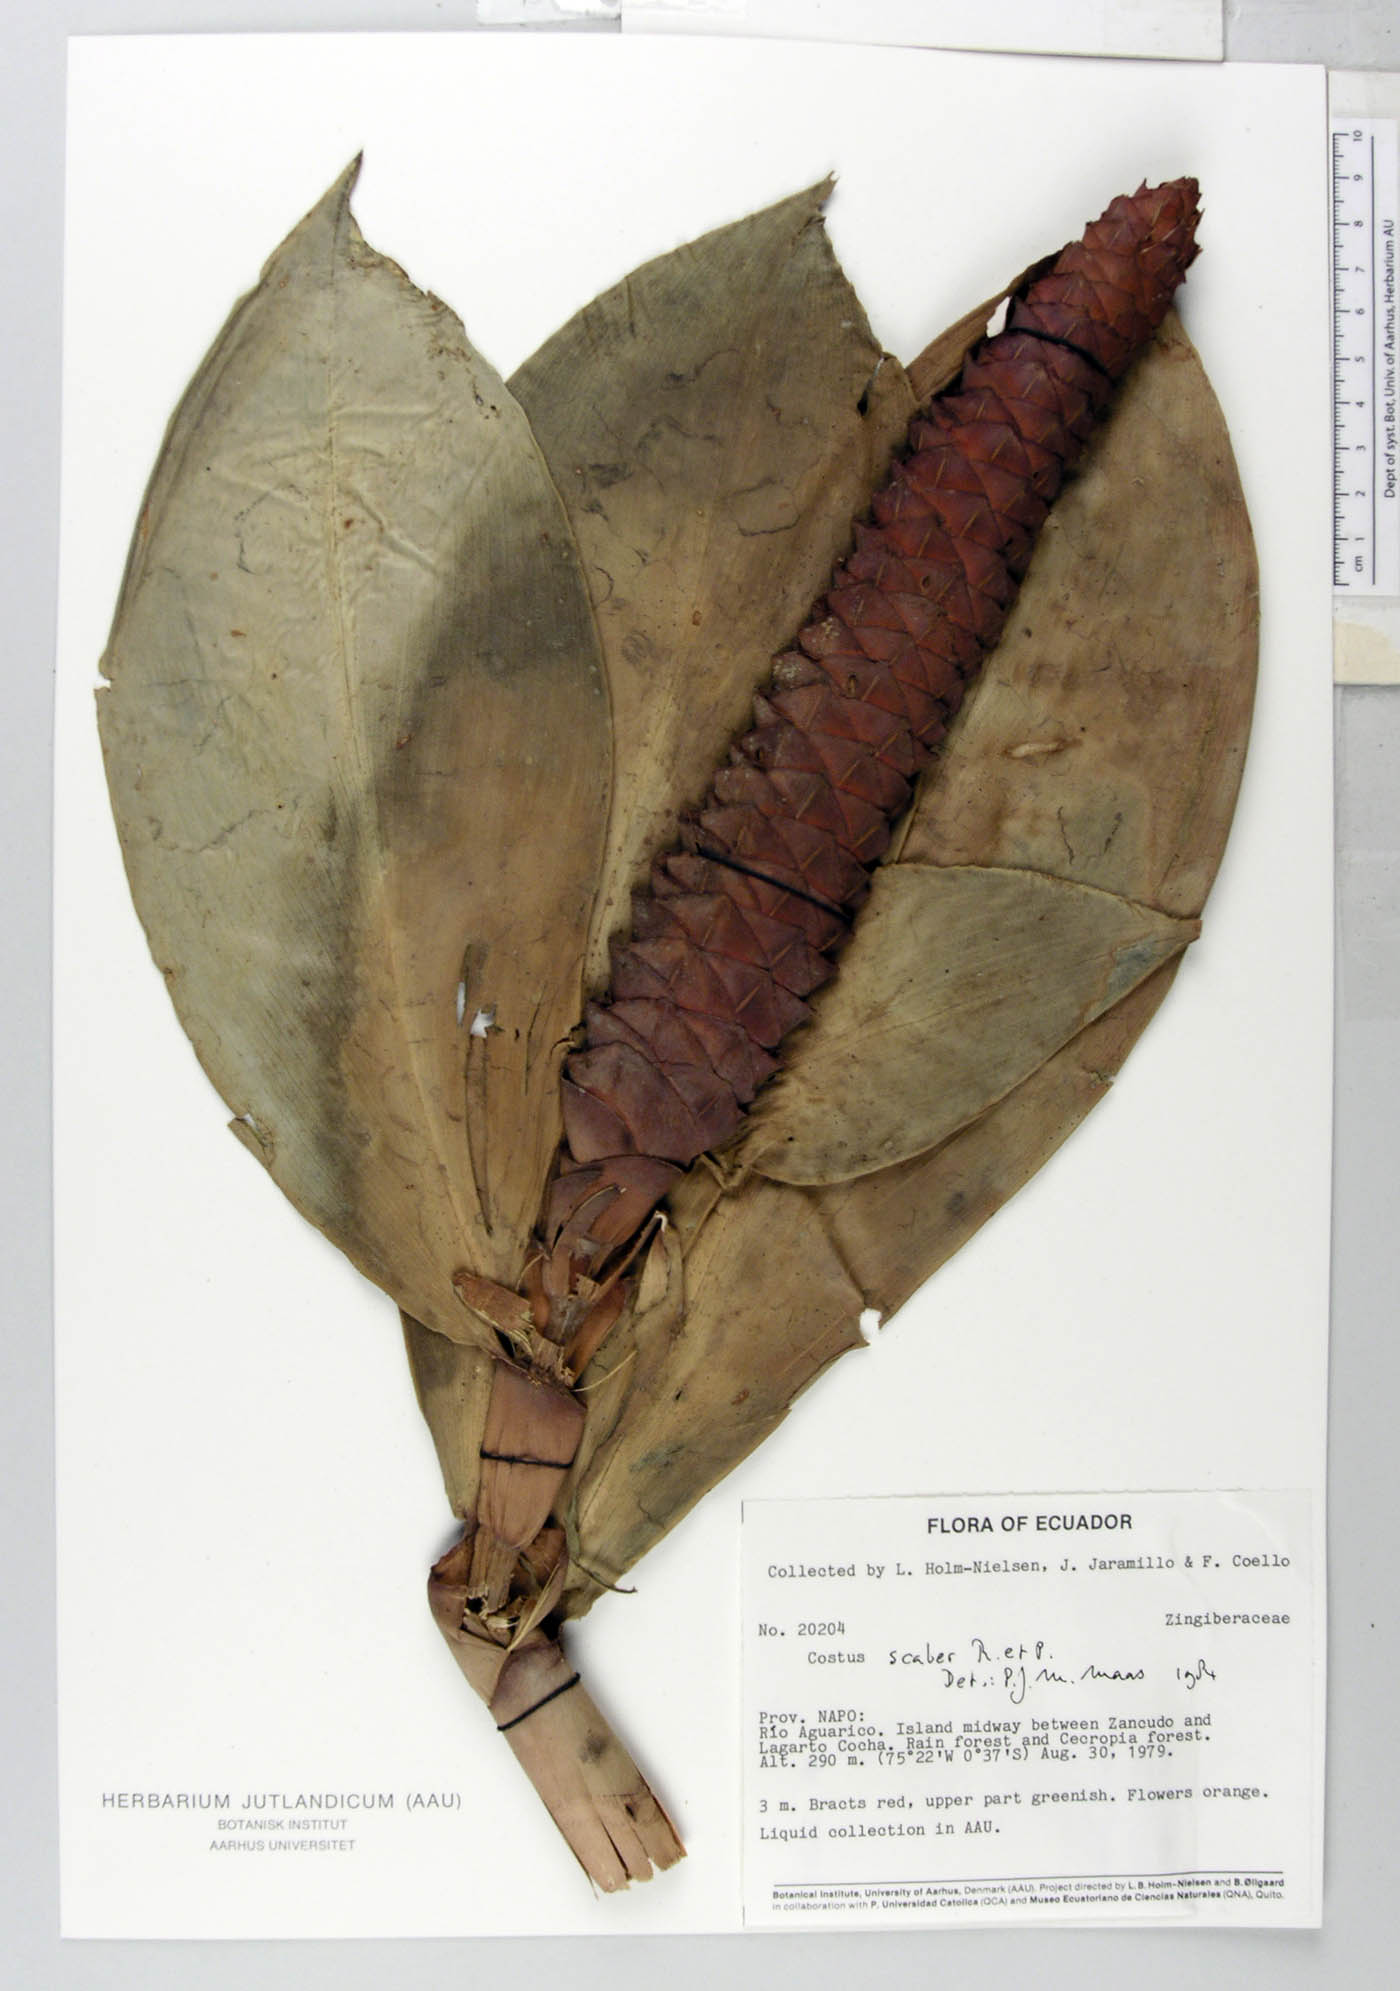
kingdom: Plantae
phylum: Tracheophyta
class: Liliopsida
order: Zingiberales
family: Costaceae
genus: Costus
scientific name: Costus scaber
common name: Spiral head ginger
